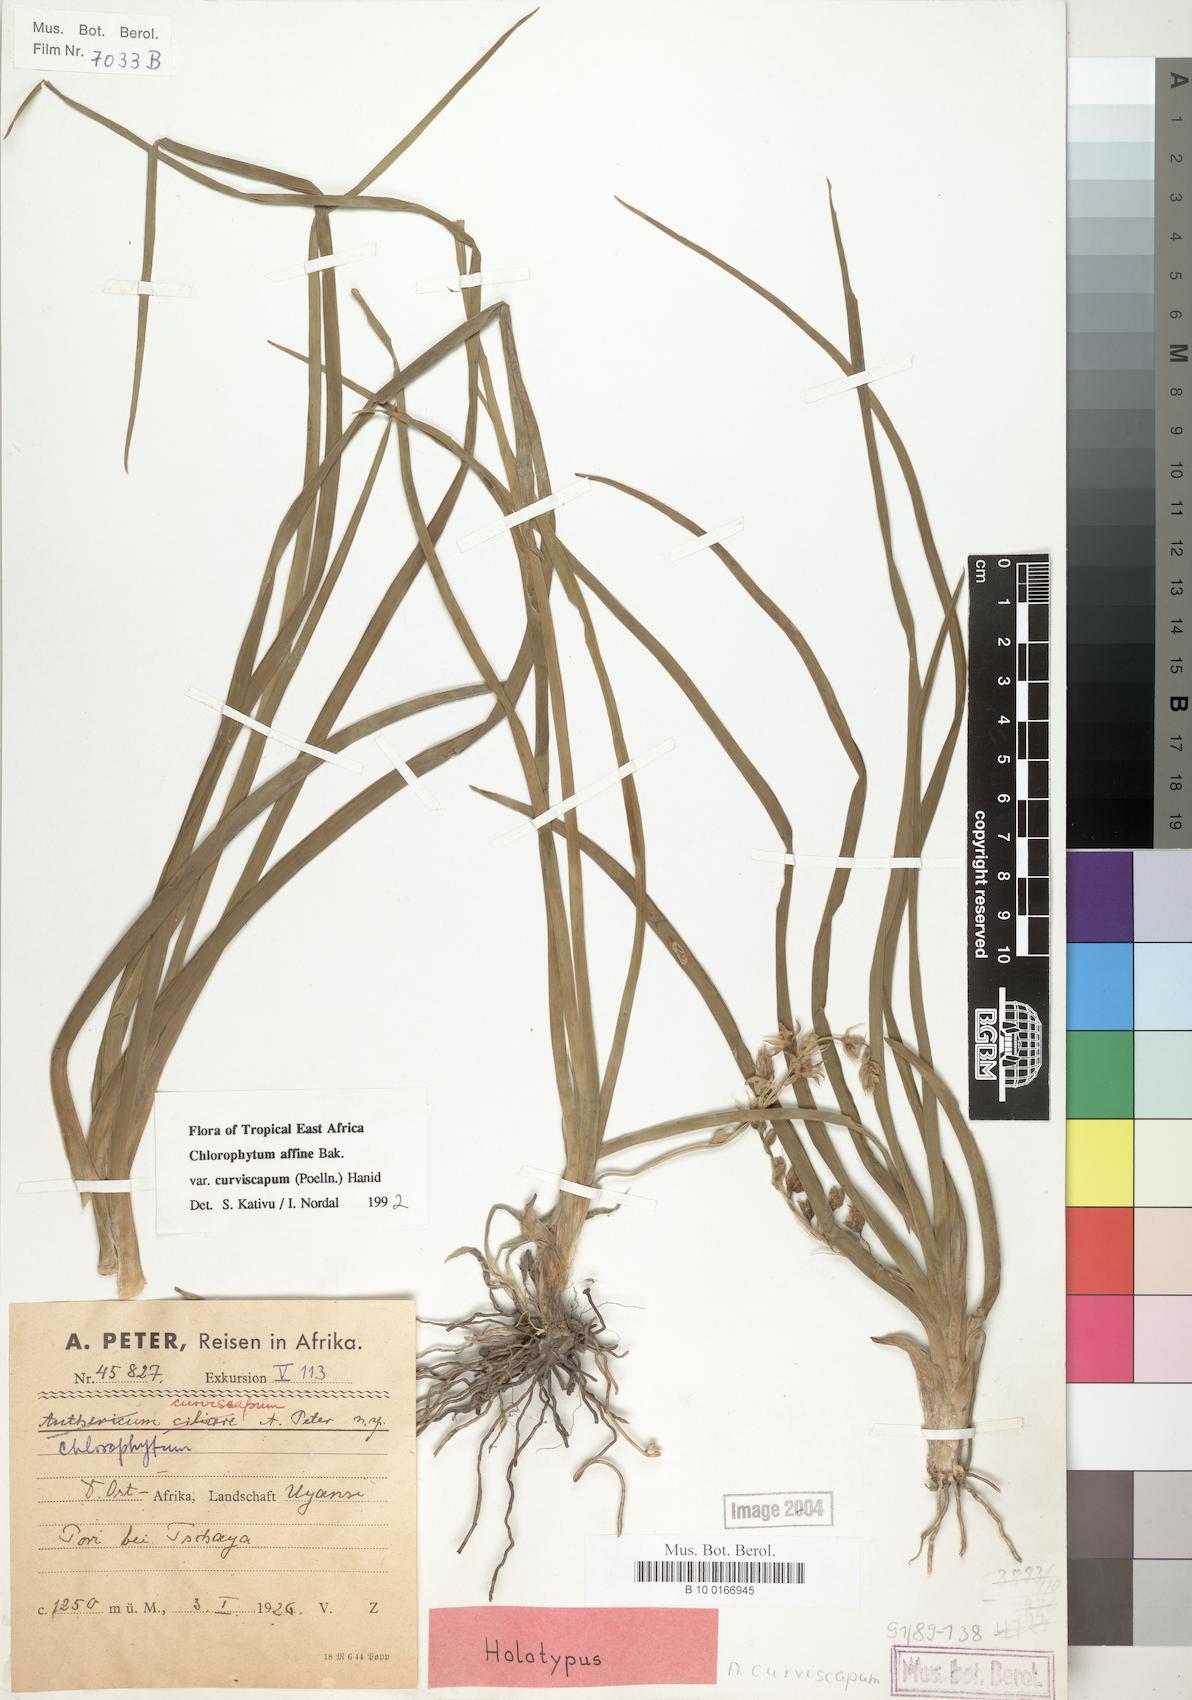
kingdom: Plantae
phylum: Tracheophyta
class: Liliopsida
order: Asparagales
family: Asparagaceae
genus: Chlorophytum
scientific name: Chlorophytum tordense
